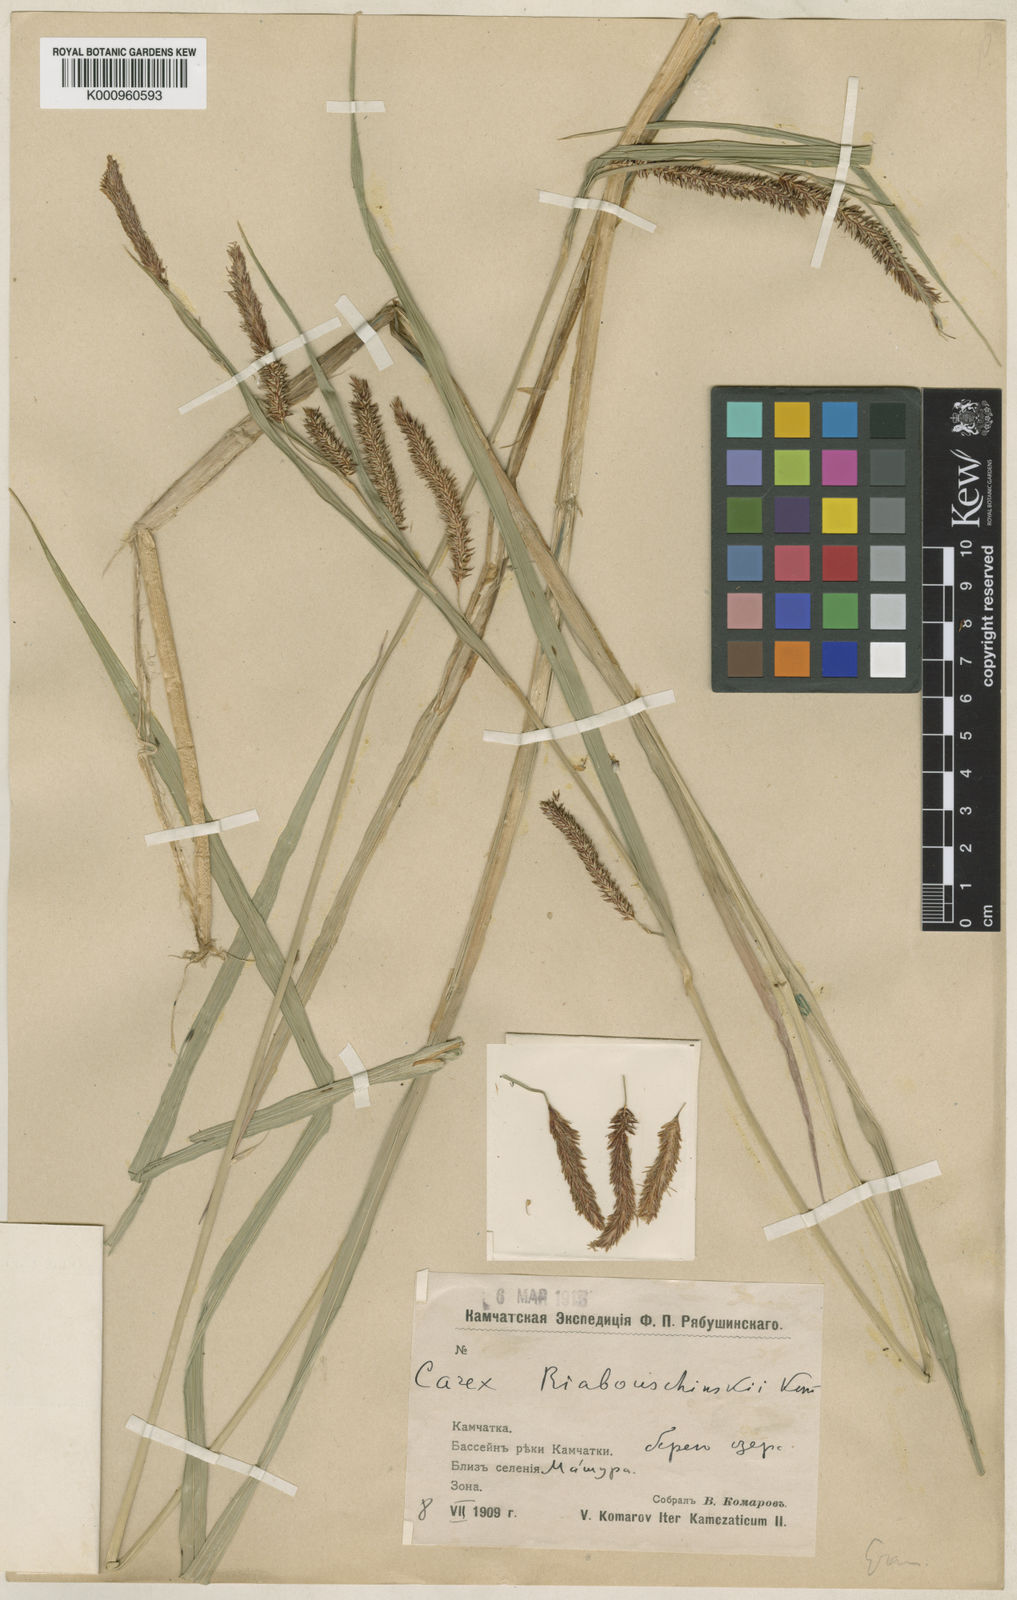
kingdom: Plantae
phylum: Tracheophyta
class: Liliopsida
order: Poales
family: Cyperaceae
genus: Carex
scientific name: Carex lyngbyei
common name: Lyngbye's sedge
